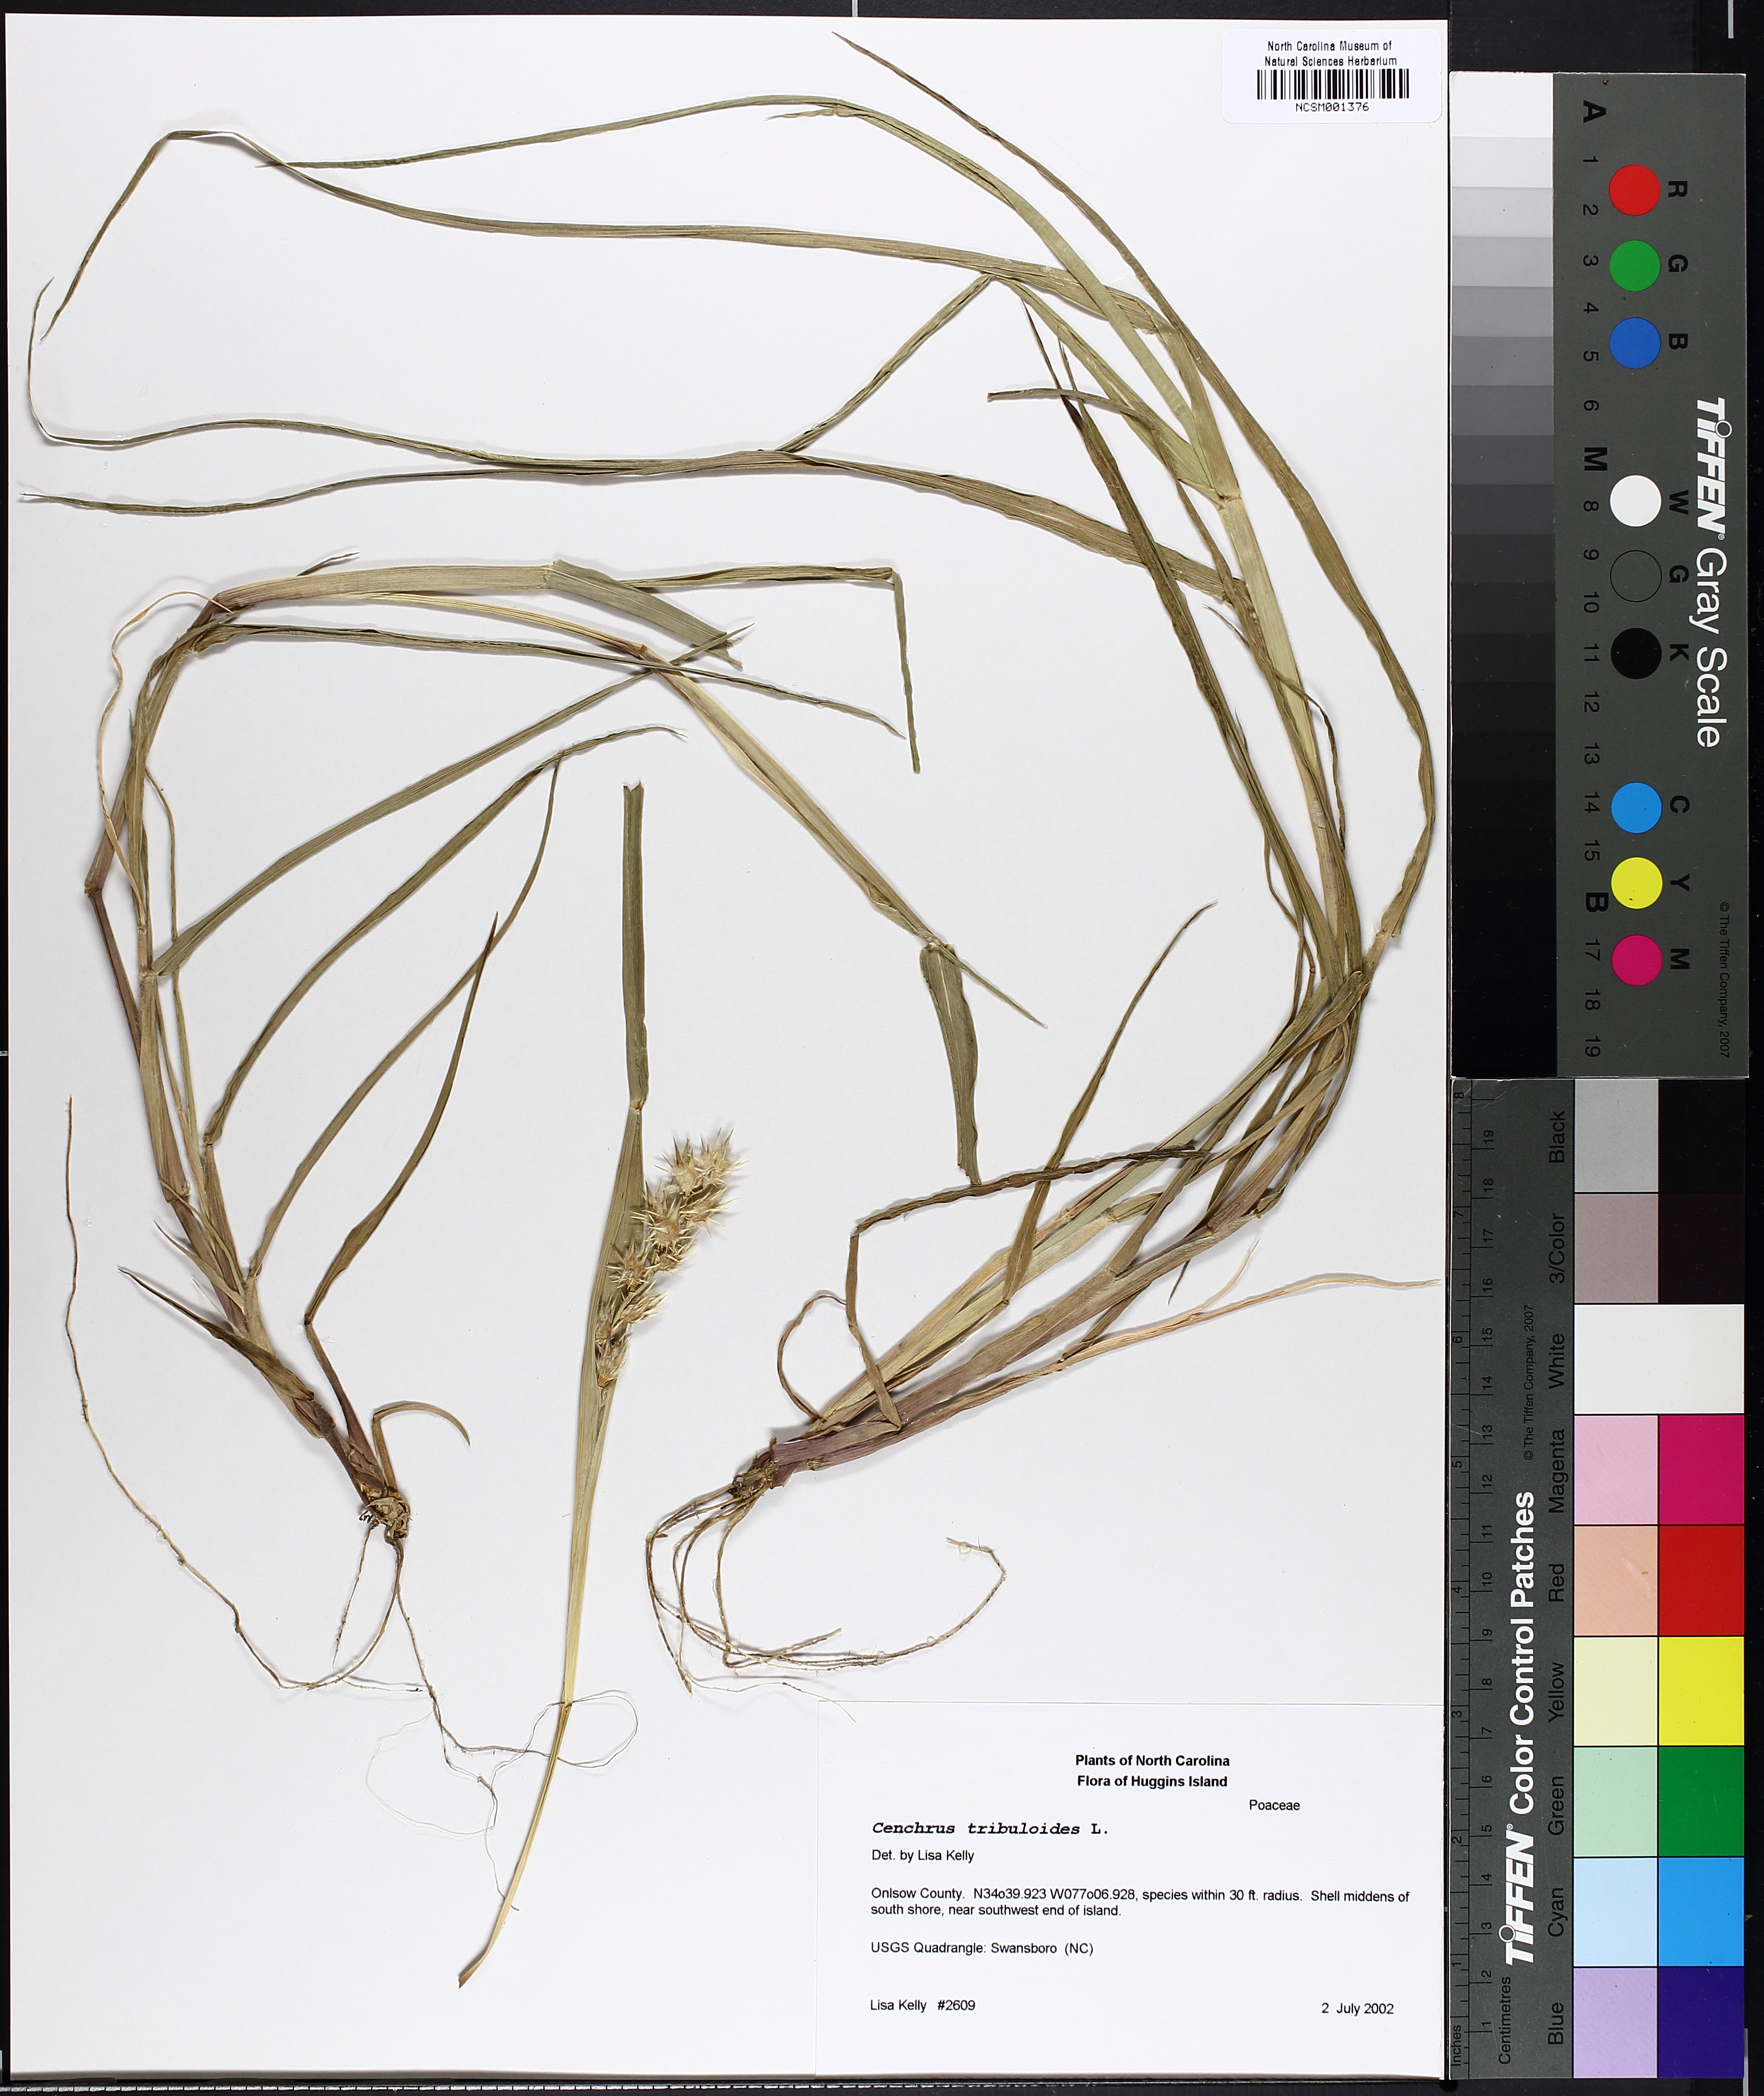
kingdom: Plantae
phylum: Tracheophyta
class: Liliopsida
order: Poales
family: Poaceae
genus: Cenchrus
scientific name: Cenchrus tribuloides
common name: Dune sandbur
